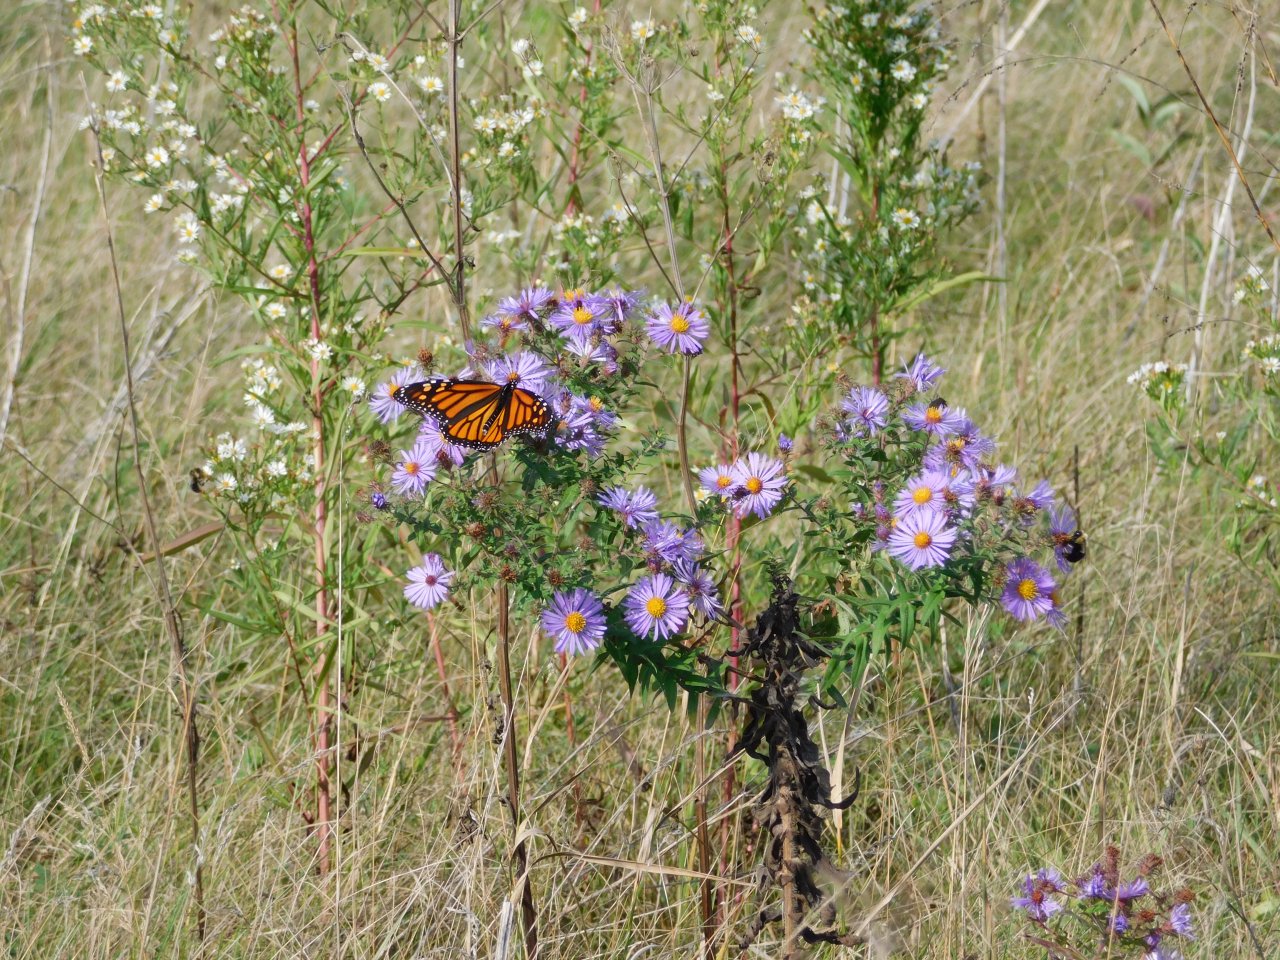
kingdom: Animalia
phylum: Arthropoda
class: Insecta
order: Lepidoptera
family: Nymphalidae
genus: Danaus
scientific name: Danaus plexippus
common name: Monarch
